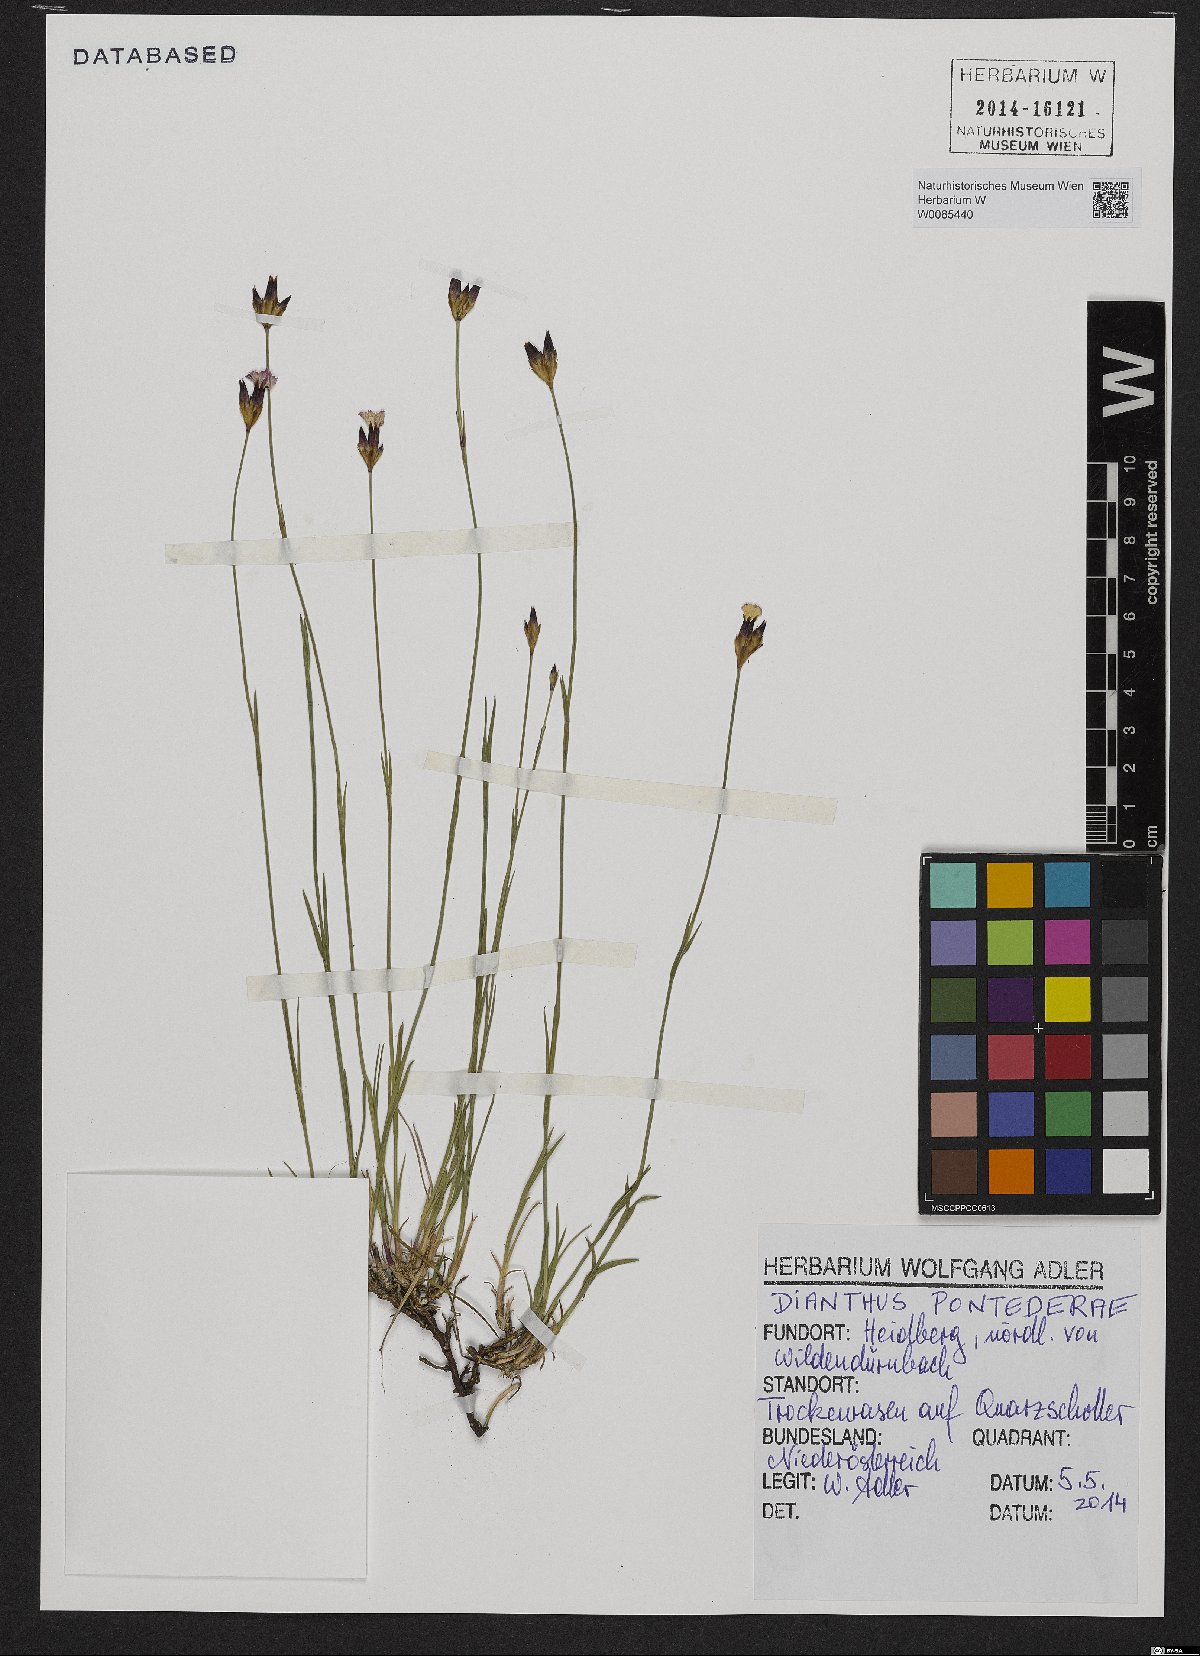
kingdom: Plantae
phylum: Tracheophyta
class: Magnoliopsida
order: Caryophyllales
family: Caryophyllaceae
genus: Dianthus
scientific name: Dianthus pontederae
